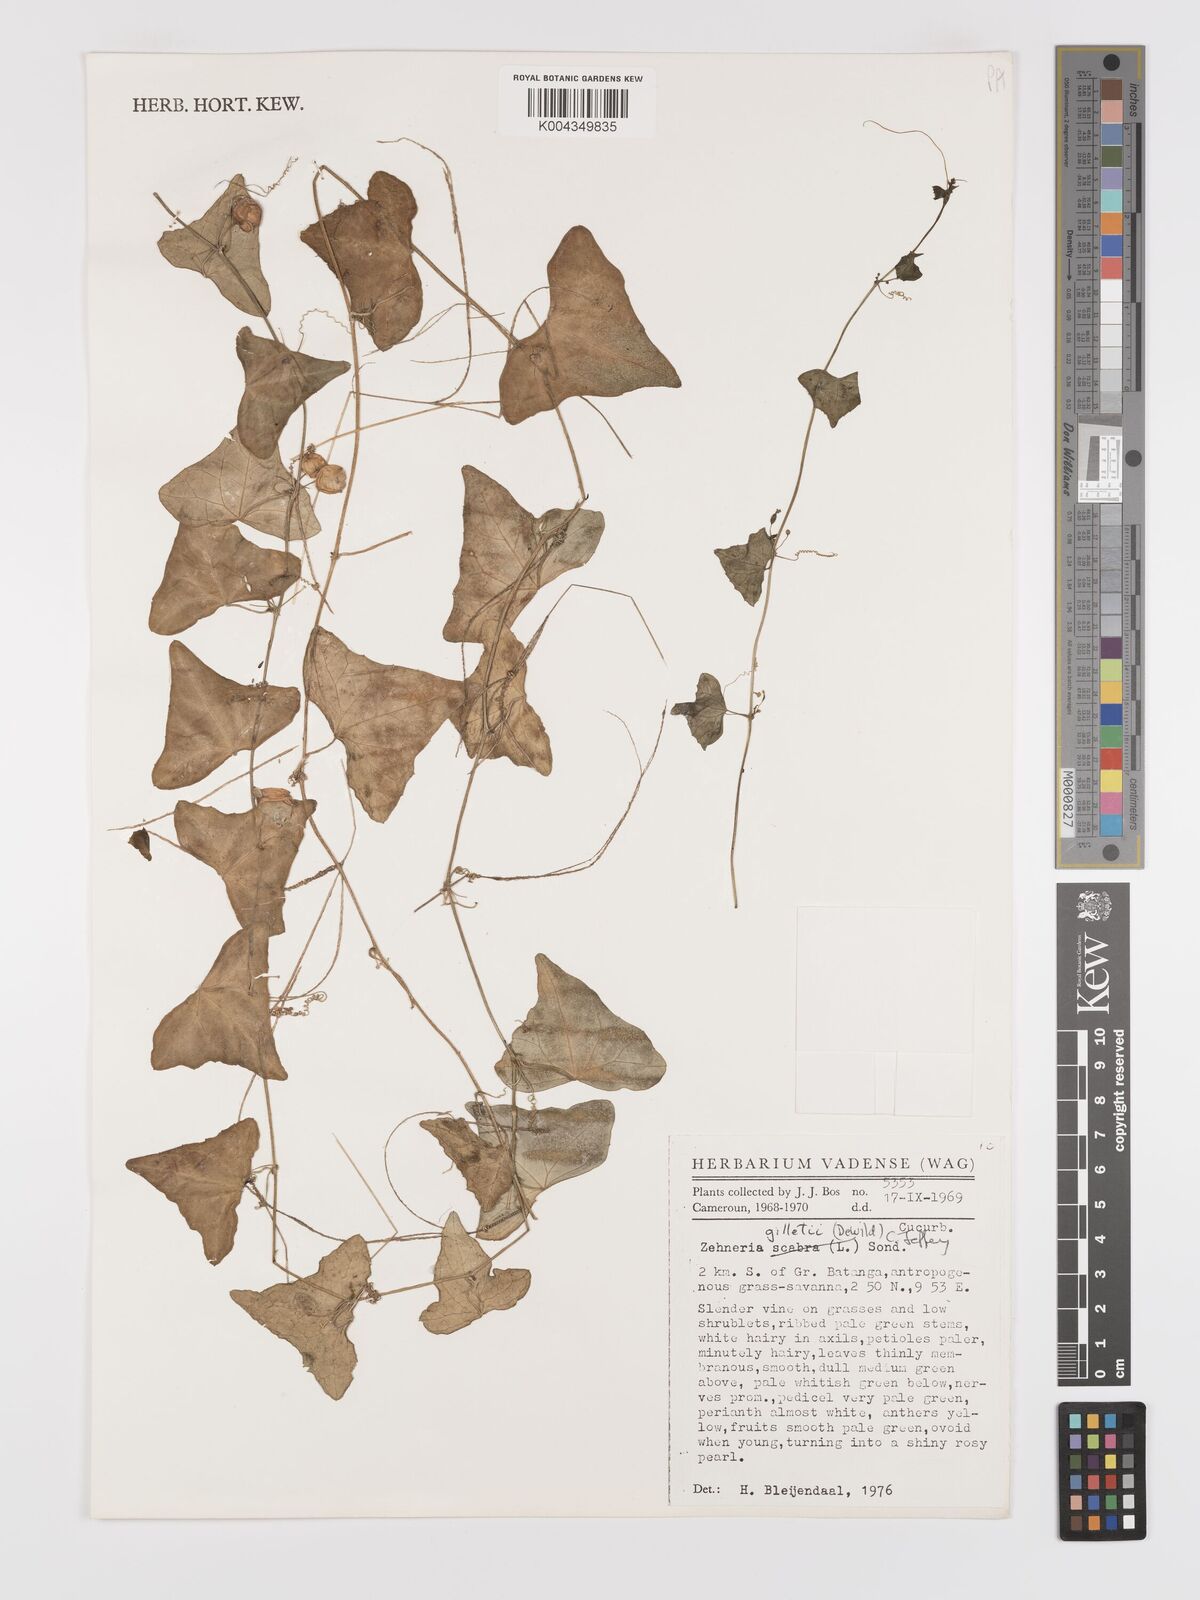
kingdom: Plantae
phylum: Tracheophyta
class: Magnoliopsida
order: Cucurbitales
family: Cucurbitaceae
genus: Zehneria
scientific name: Zehneria gilletii
